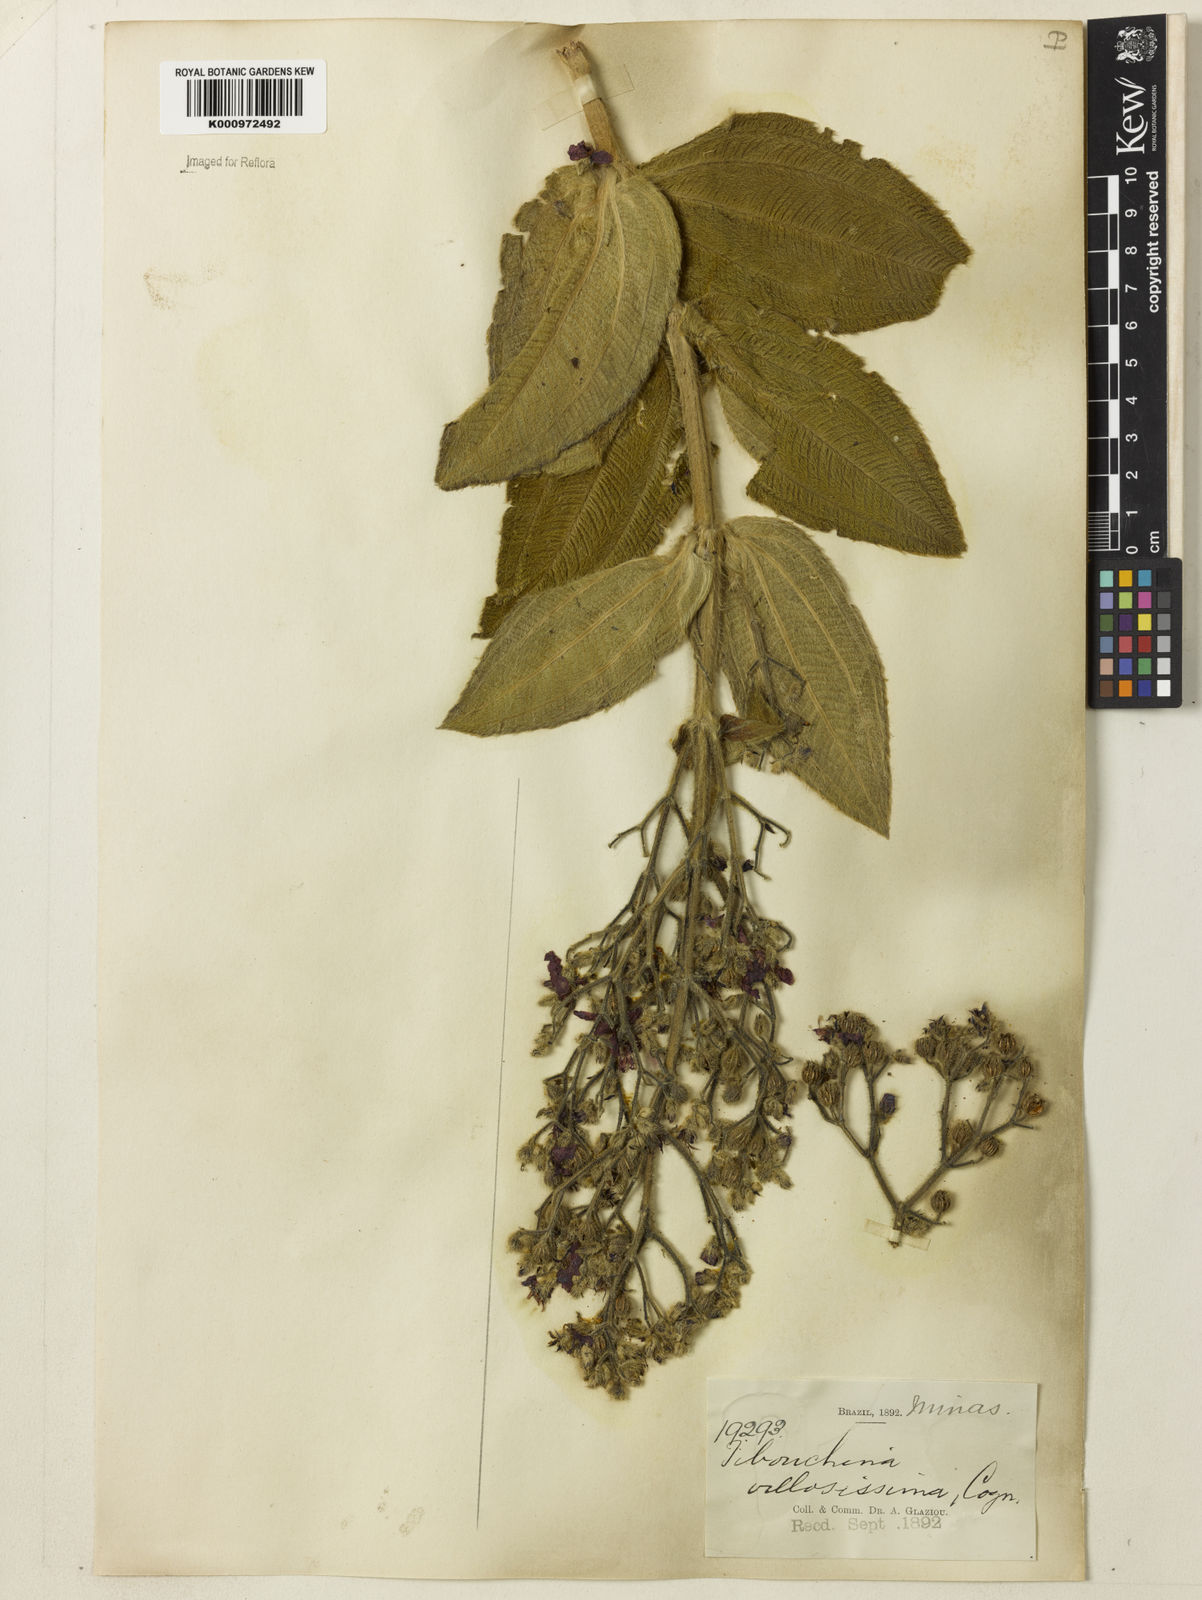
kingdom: Plantae
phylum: Tracheophyta
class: Magnoliopsida
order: Myrtales
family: Melastomataceae
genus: Pleroma
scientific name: Pleroma villosissimum
